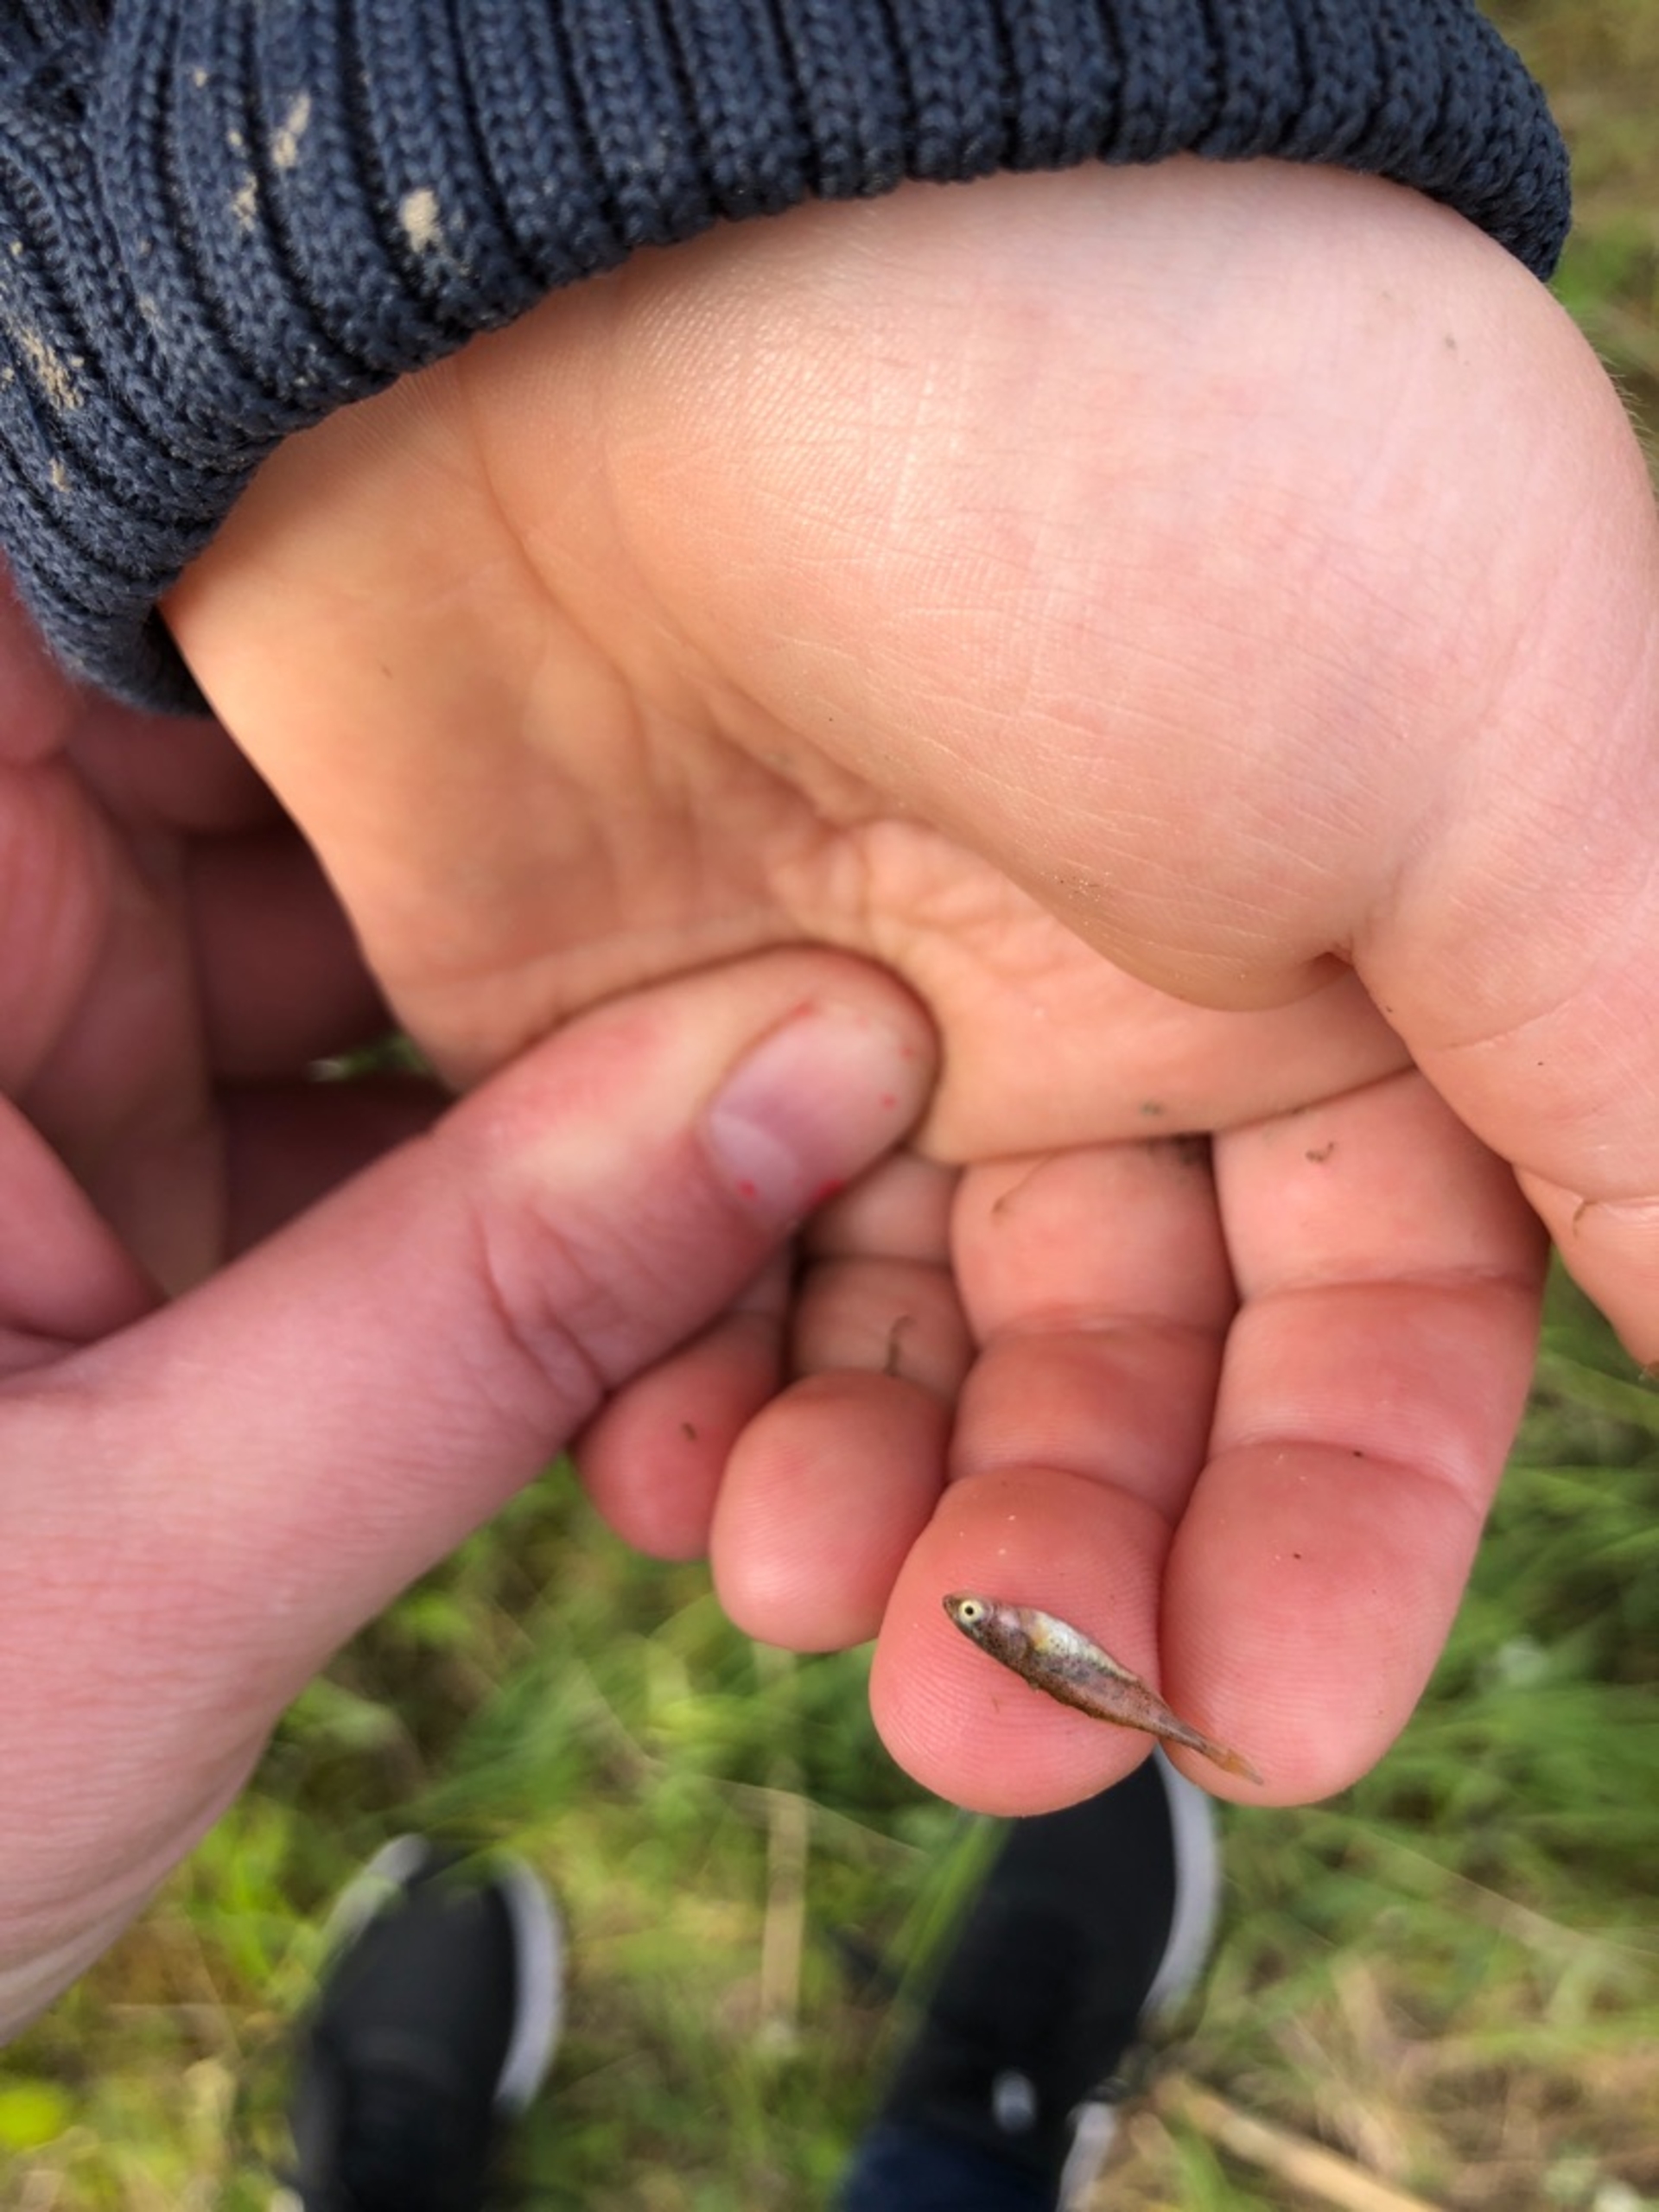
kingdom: Animalia
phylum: Chordata
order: Gasterosteiformes
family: Gasterosteidae
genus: Pungitius
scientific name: Pungitius pungitius
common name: Nipigget hundestejle
